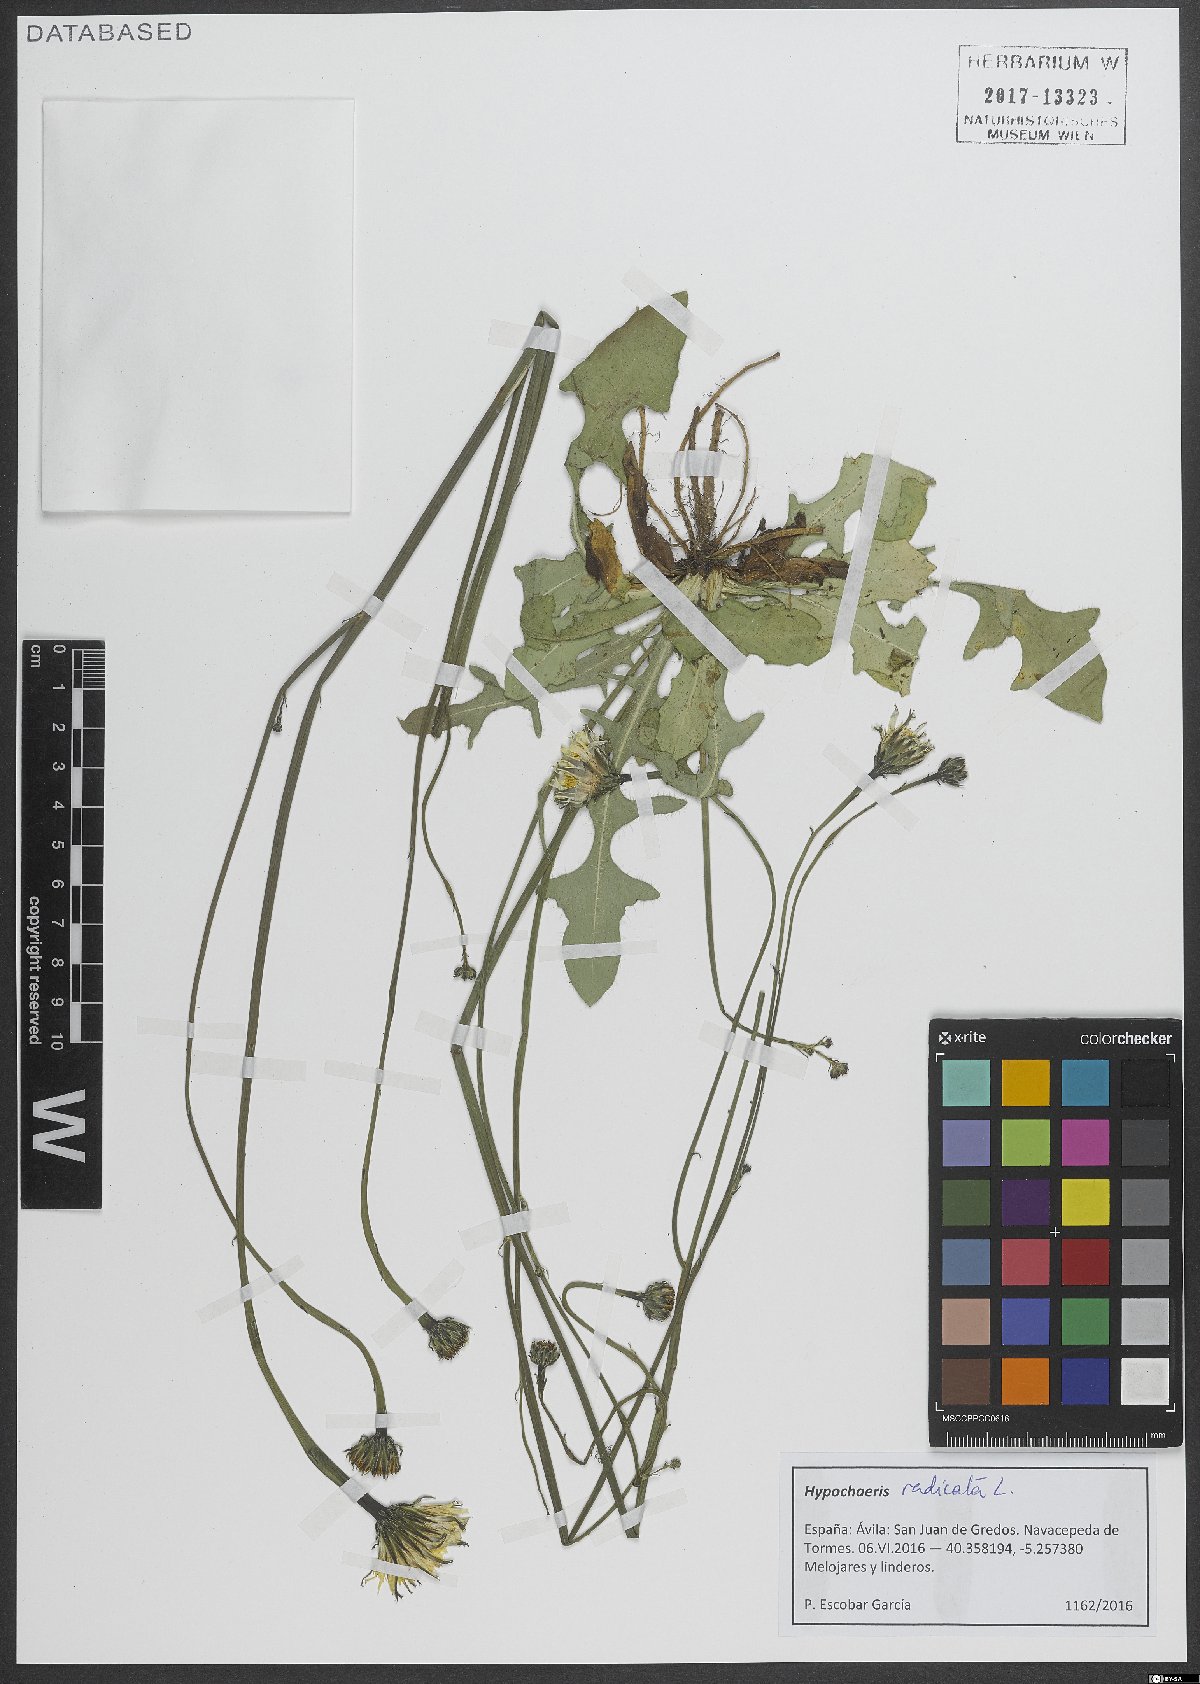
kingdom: Plantae
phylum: Tracheophyta
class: Magnoliopsida
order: Asterales
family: Asteraceae
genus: Hypochaeris
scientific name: Hypochaeris radicata
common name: Flatweed
